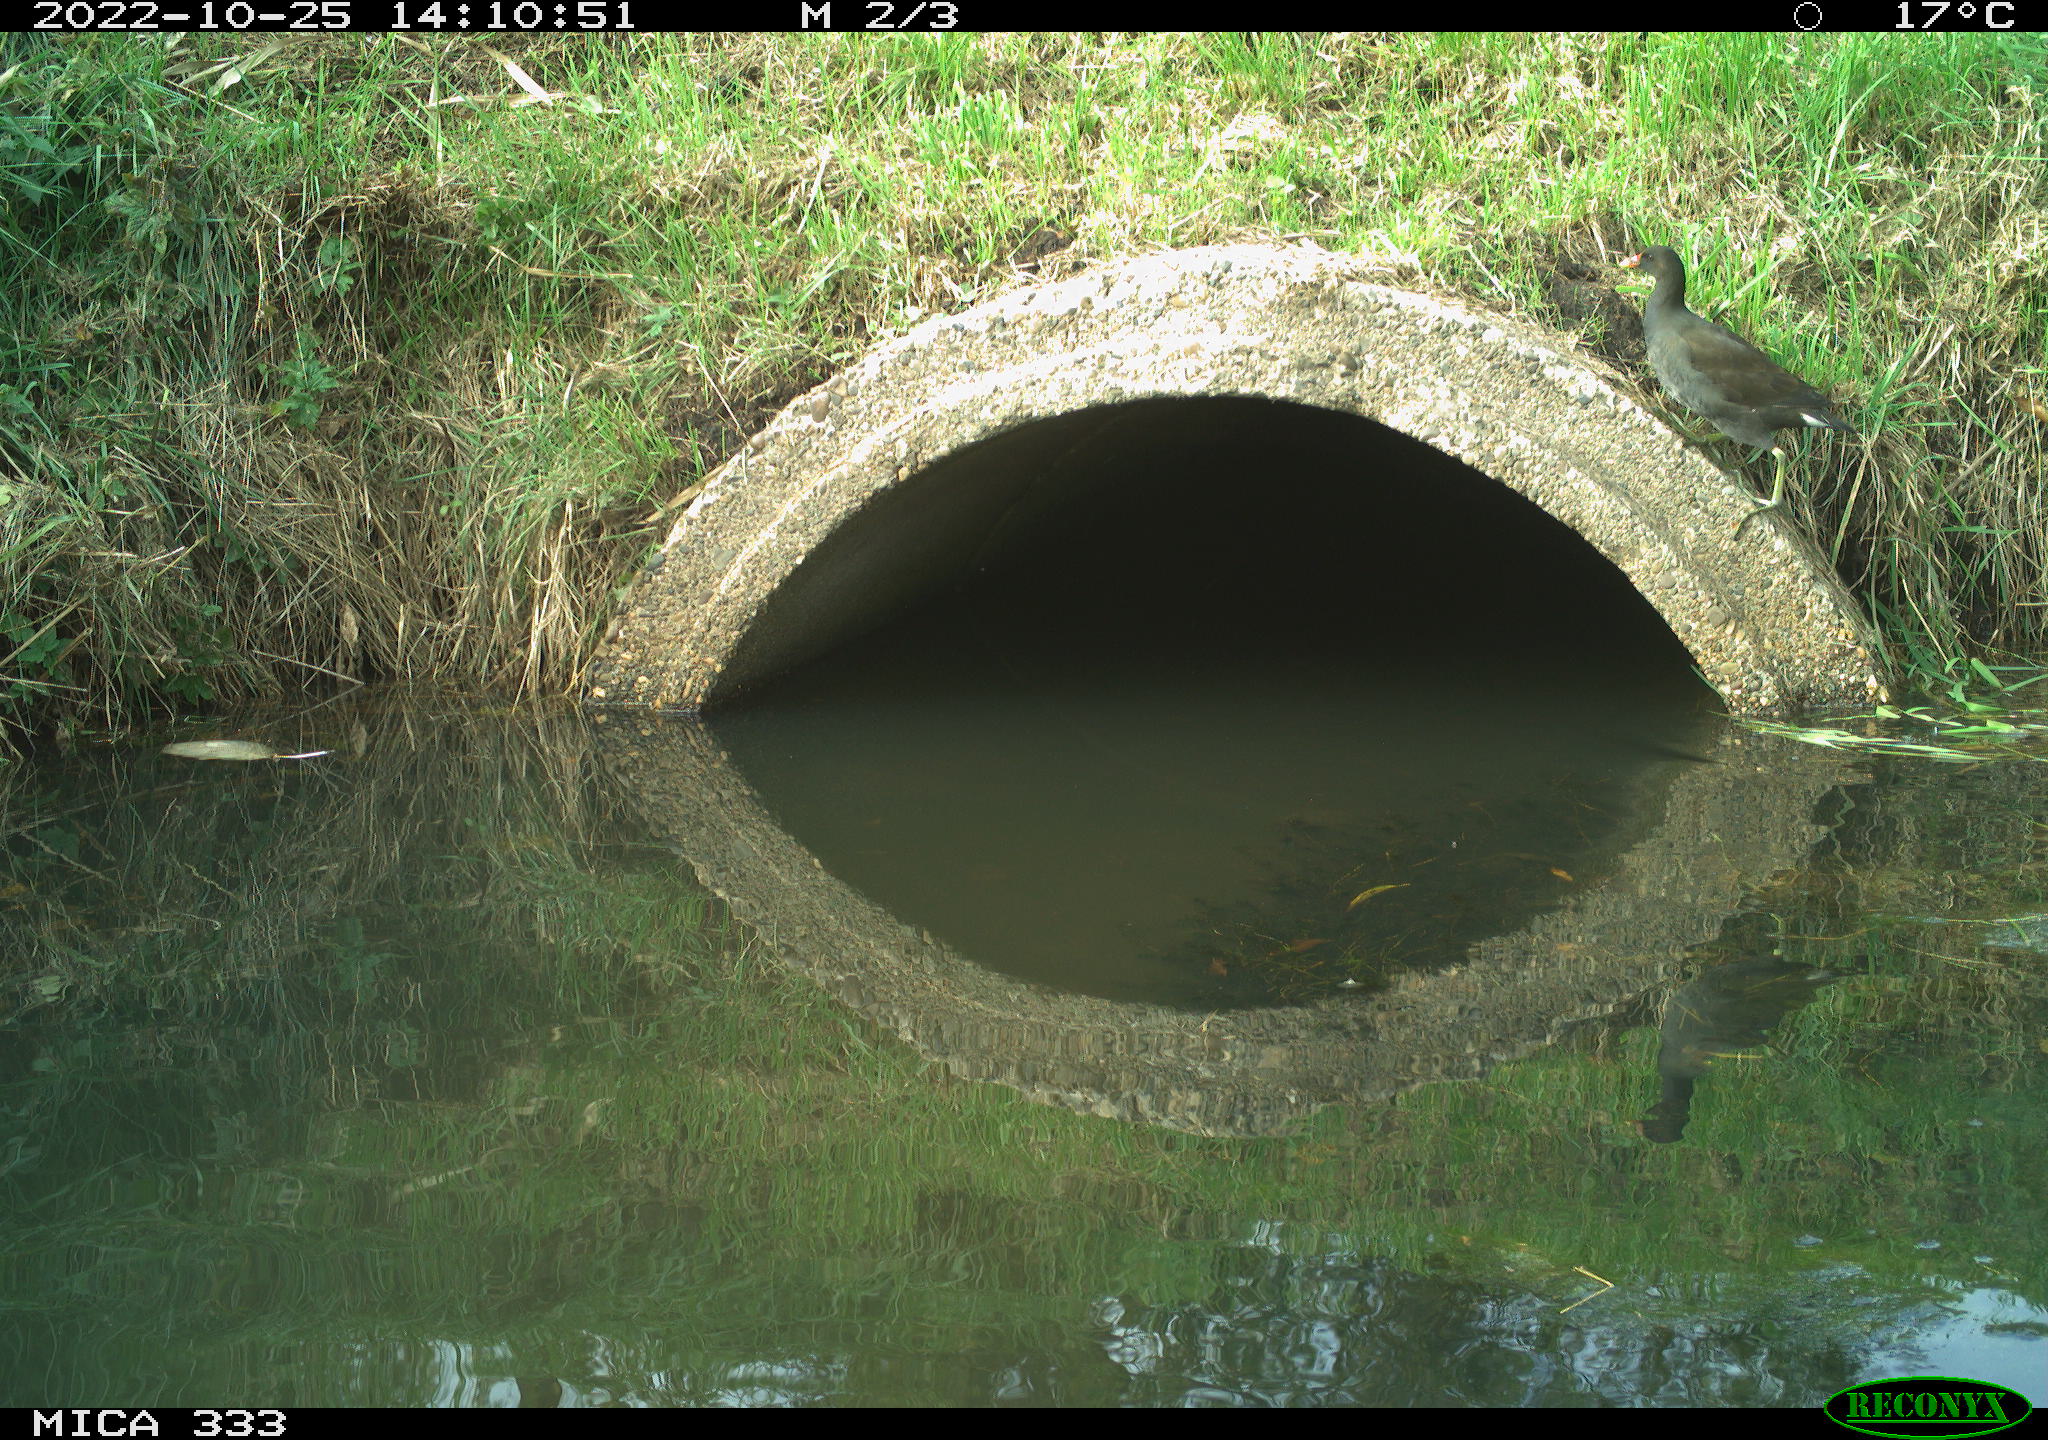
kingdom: Animalia
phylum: Chordata
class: Aves
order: Gruiformes
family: Rallidae
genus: Gallinula
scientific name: Gallinula chloropus
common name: Common moorhen
